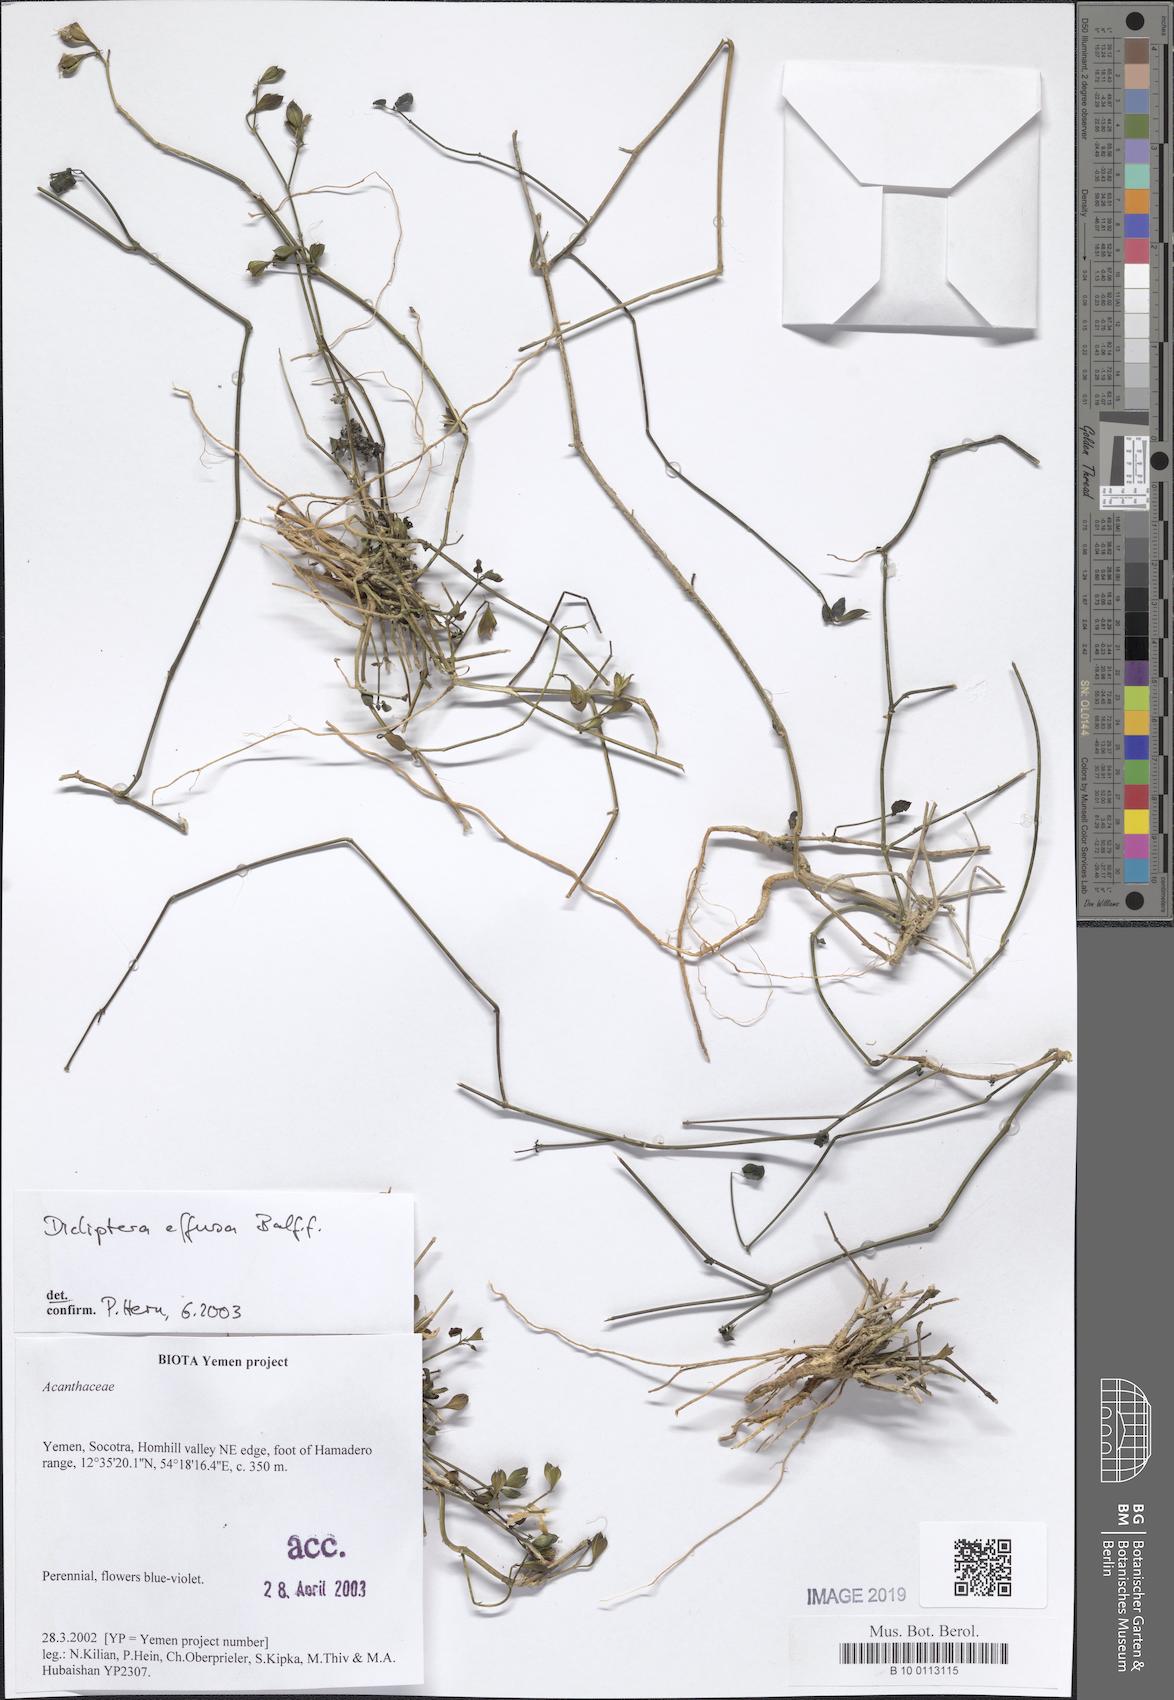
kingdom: Plantae
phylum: Tracheophyta
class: Magnoliopsida
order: Lamiales
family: Acanthaceae
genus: Dicliptera
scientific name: Dicliptera effusa
